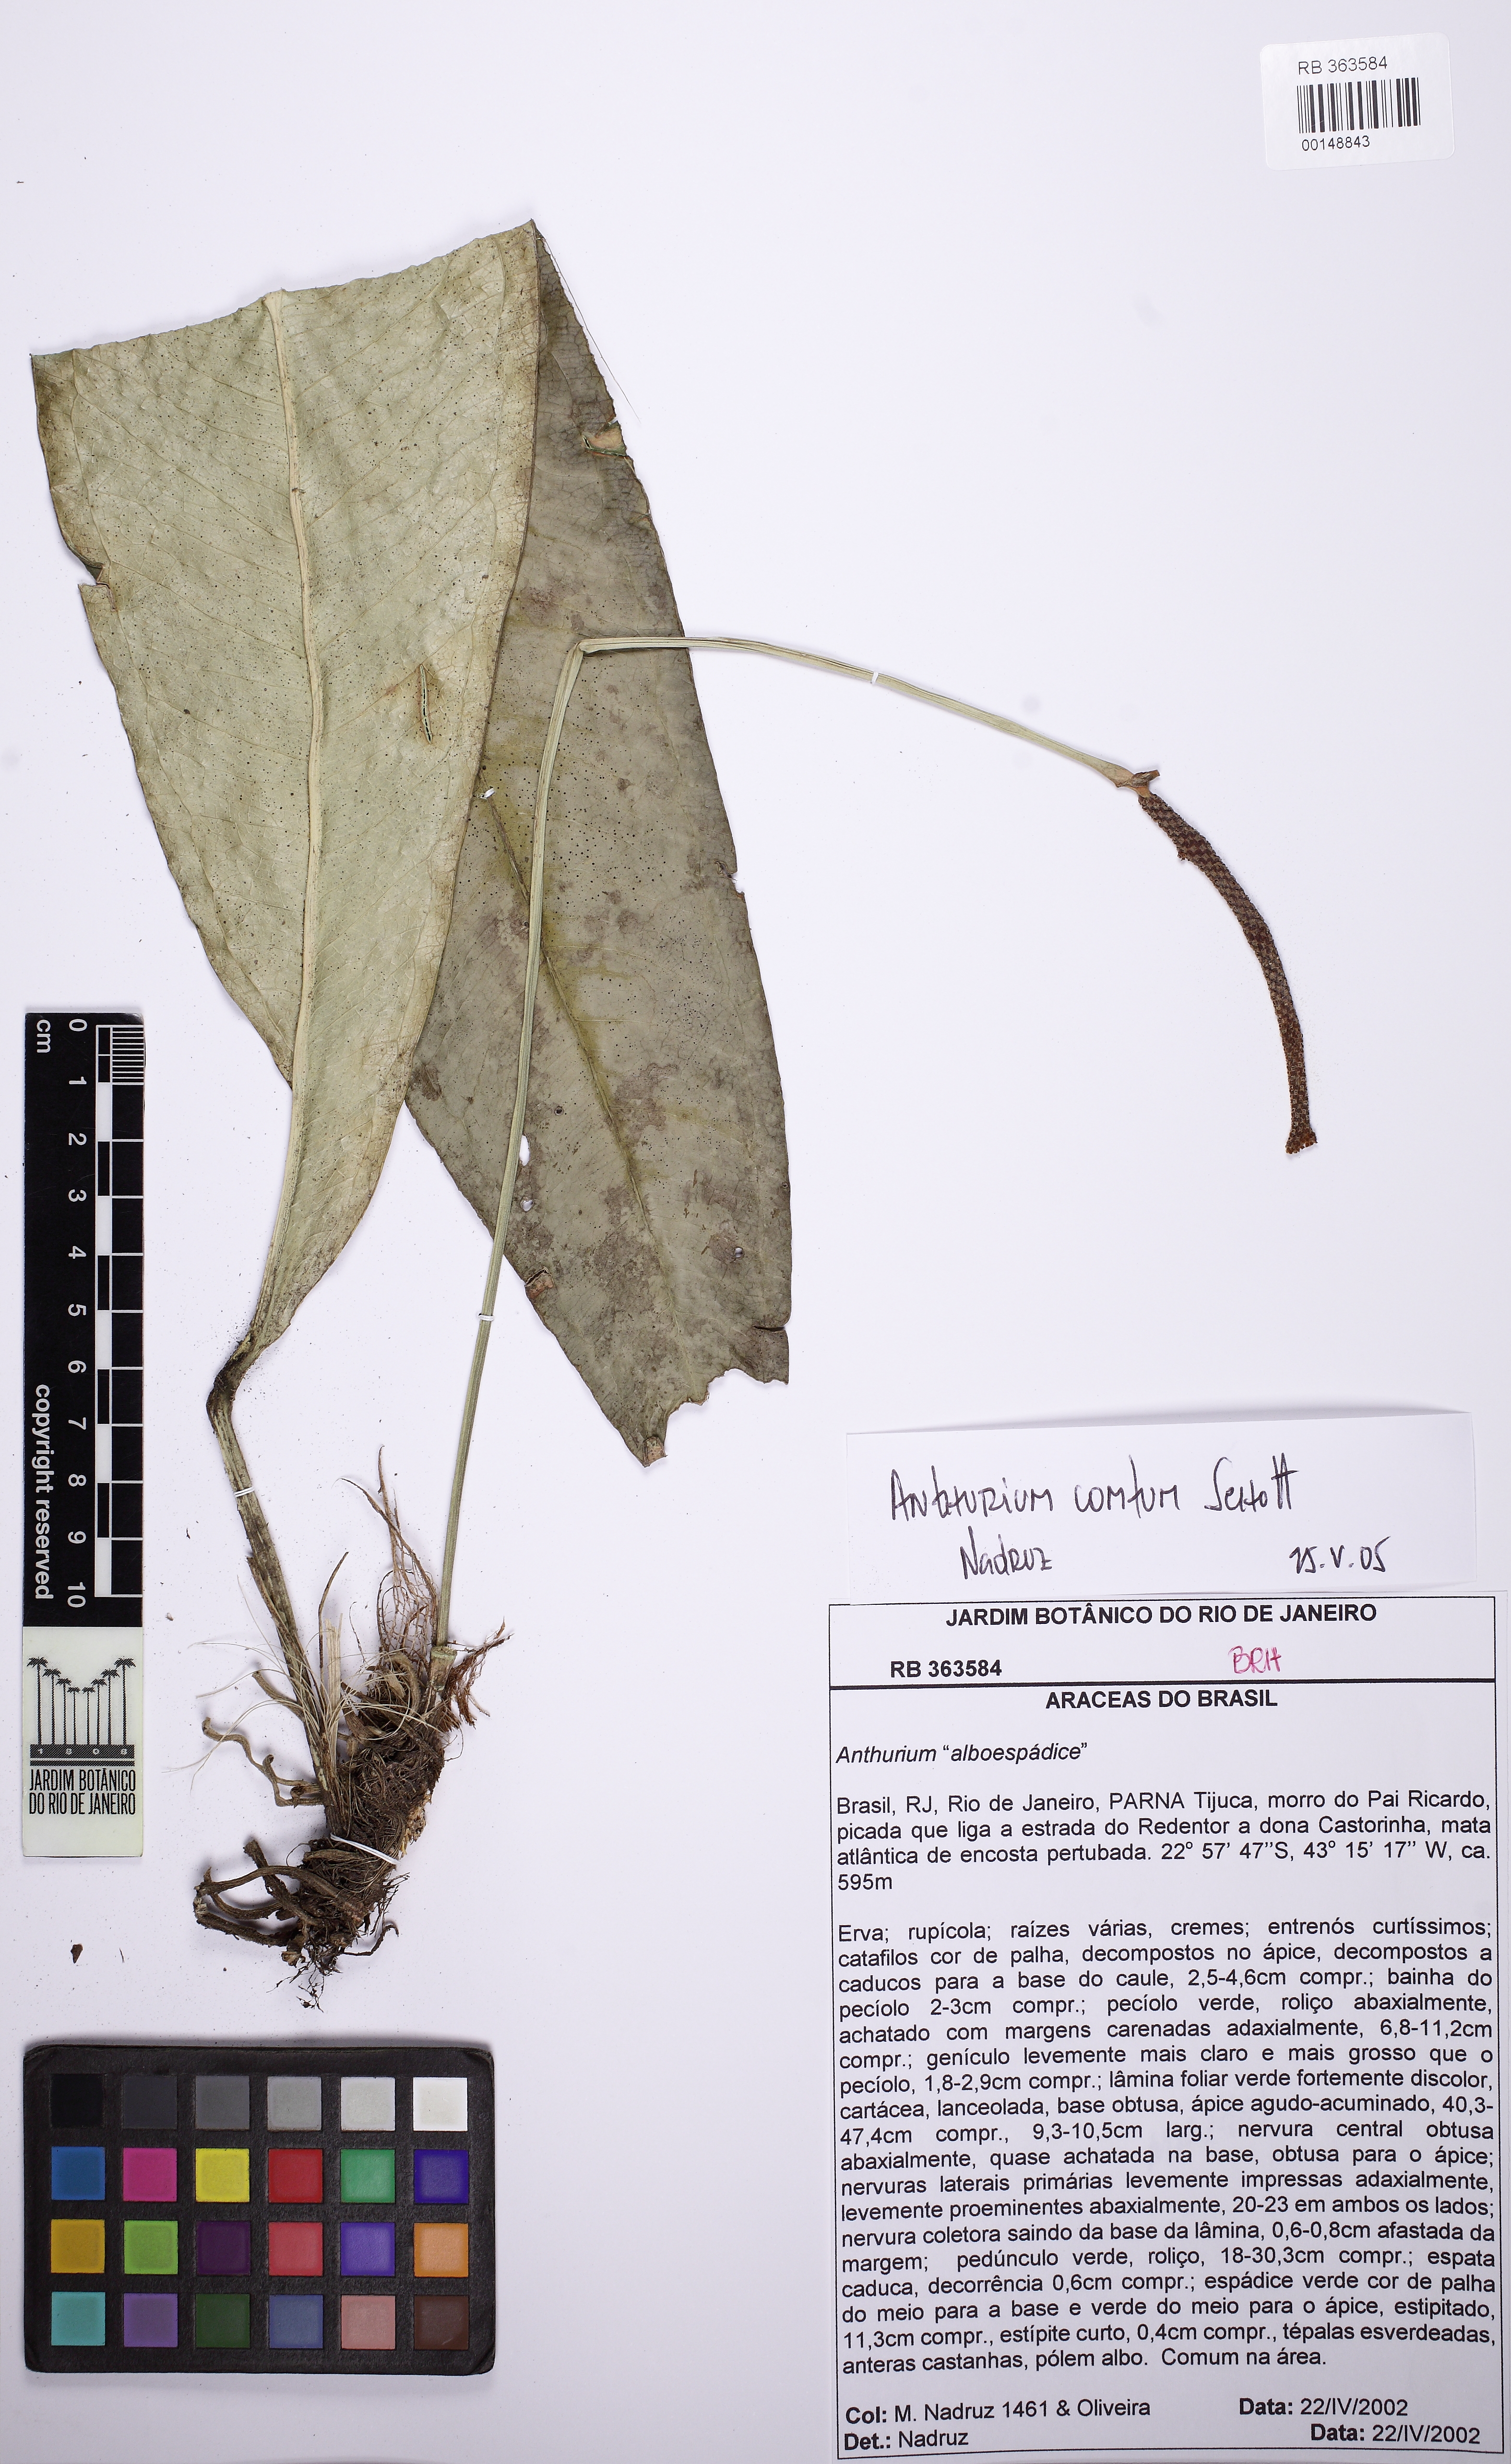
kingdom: Plantae
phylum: Tracheophyta
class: Liliopsida
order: Alismatales
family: Araceae
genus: Anthurium
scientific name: Anthurium comtum
